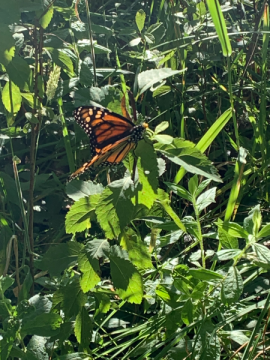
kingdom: Animalia
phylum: Arthropoda
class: Insecta
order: Lepidoptera
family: Nymphalidae
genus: Danaus
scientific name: Danaus plexippus
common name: Monarch
